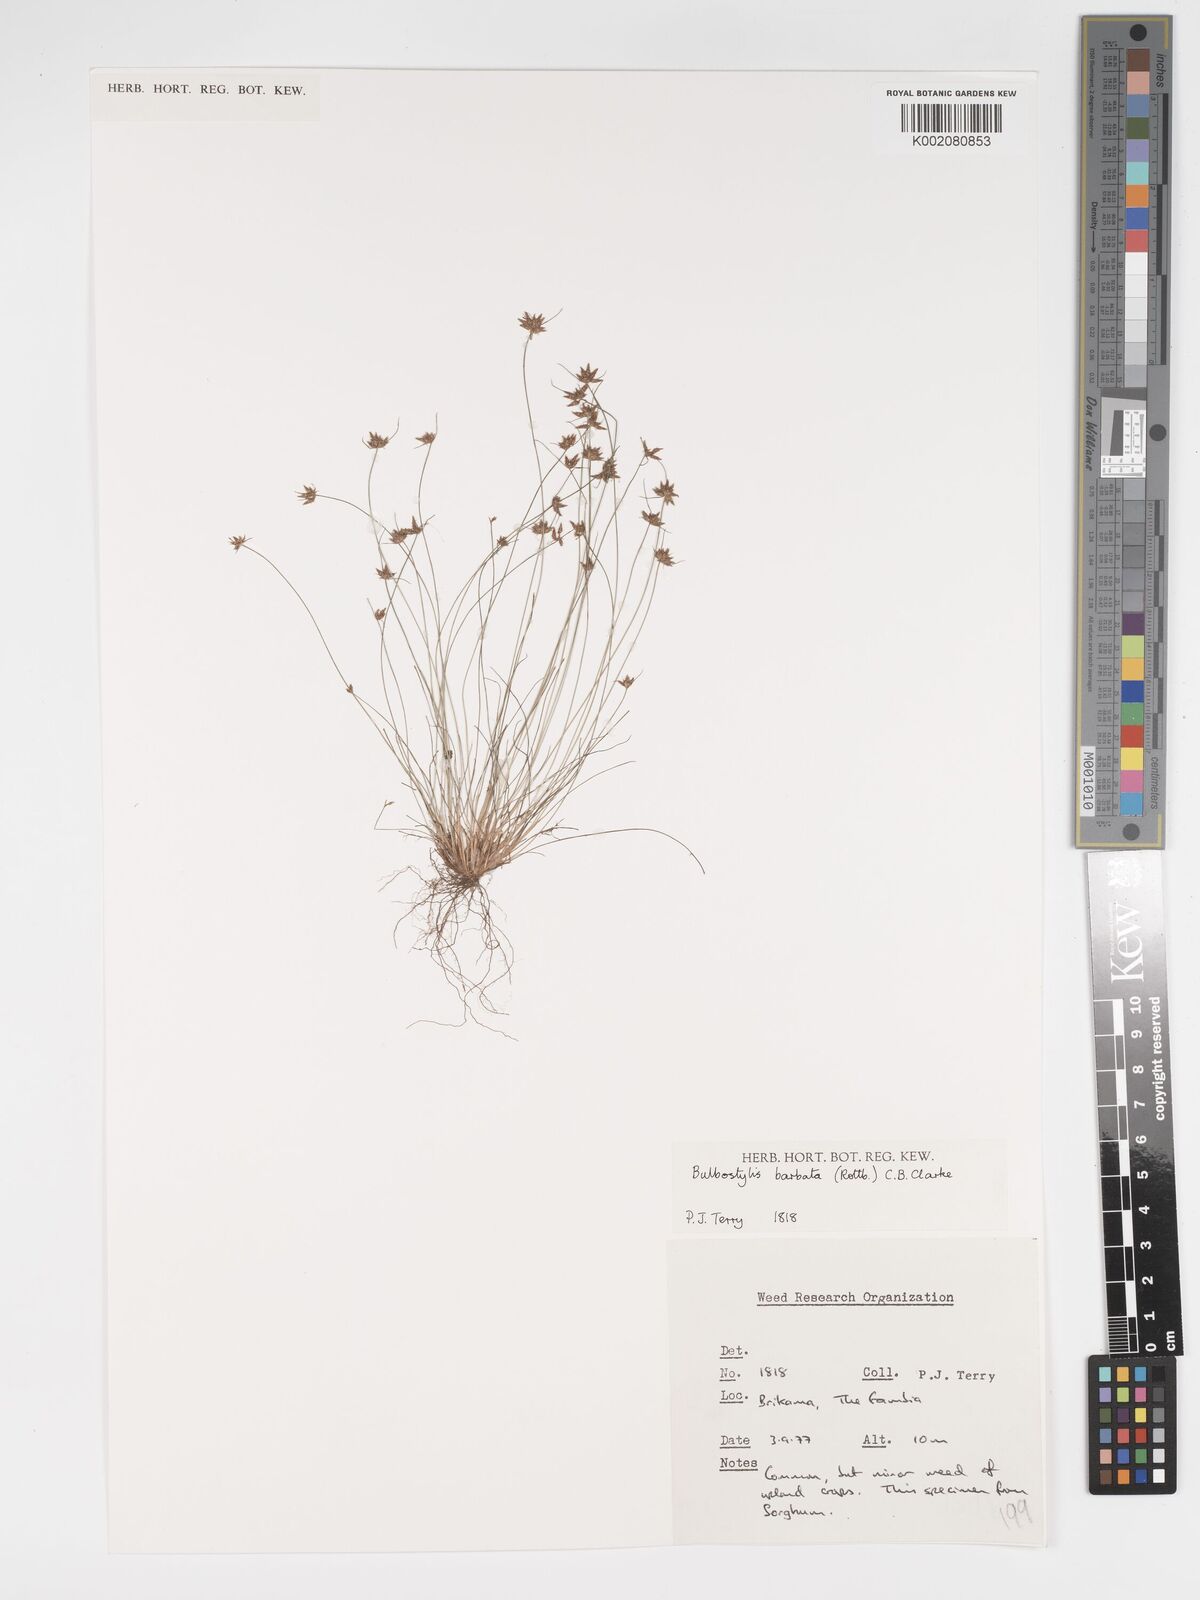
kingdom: Plantae
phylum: Tracheophyta
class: Liliopsida
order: Poales
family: Cyperaceae
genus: Bulbostylis
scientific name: Bulbostylis barbata
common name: Watergrass
